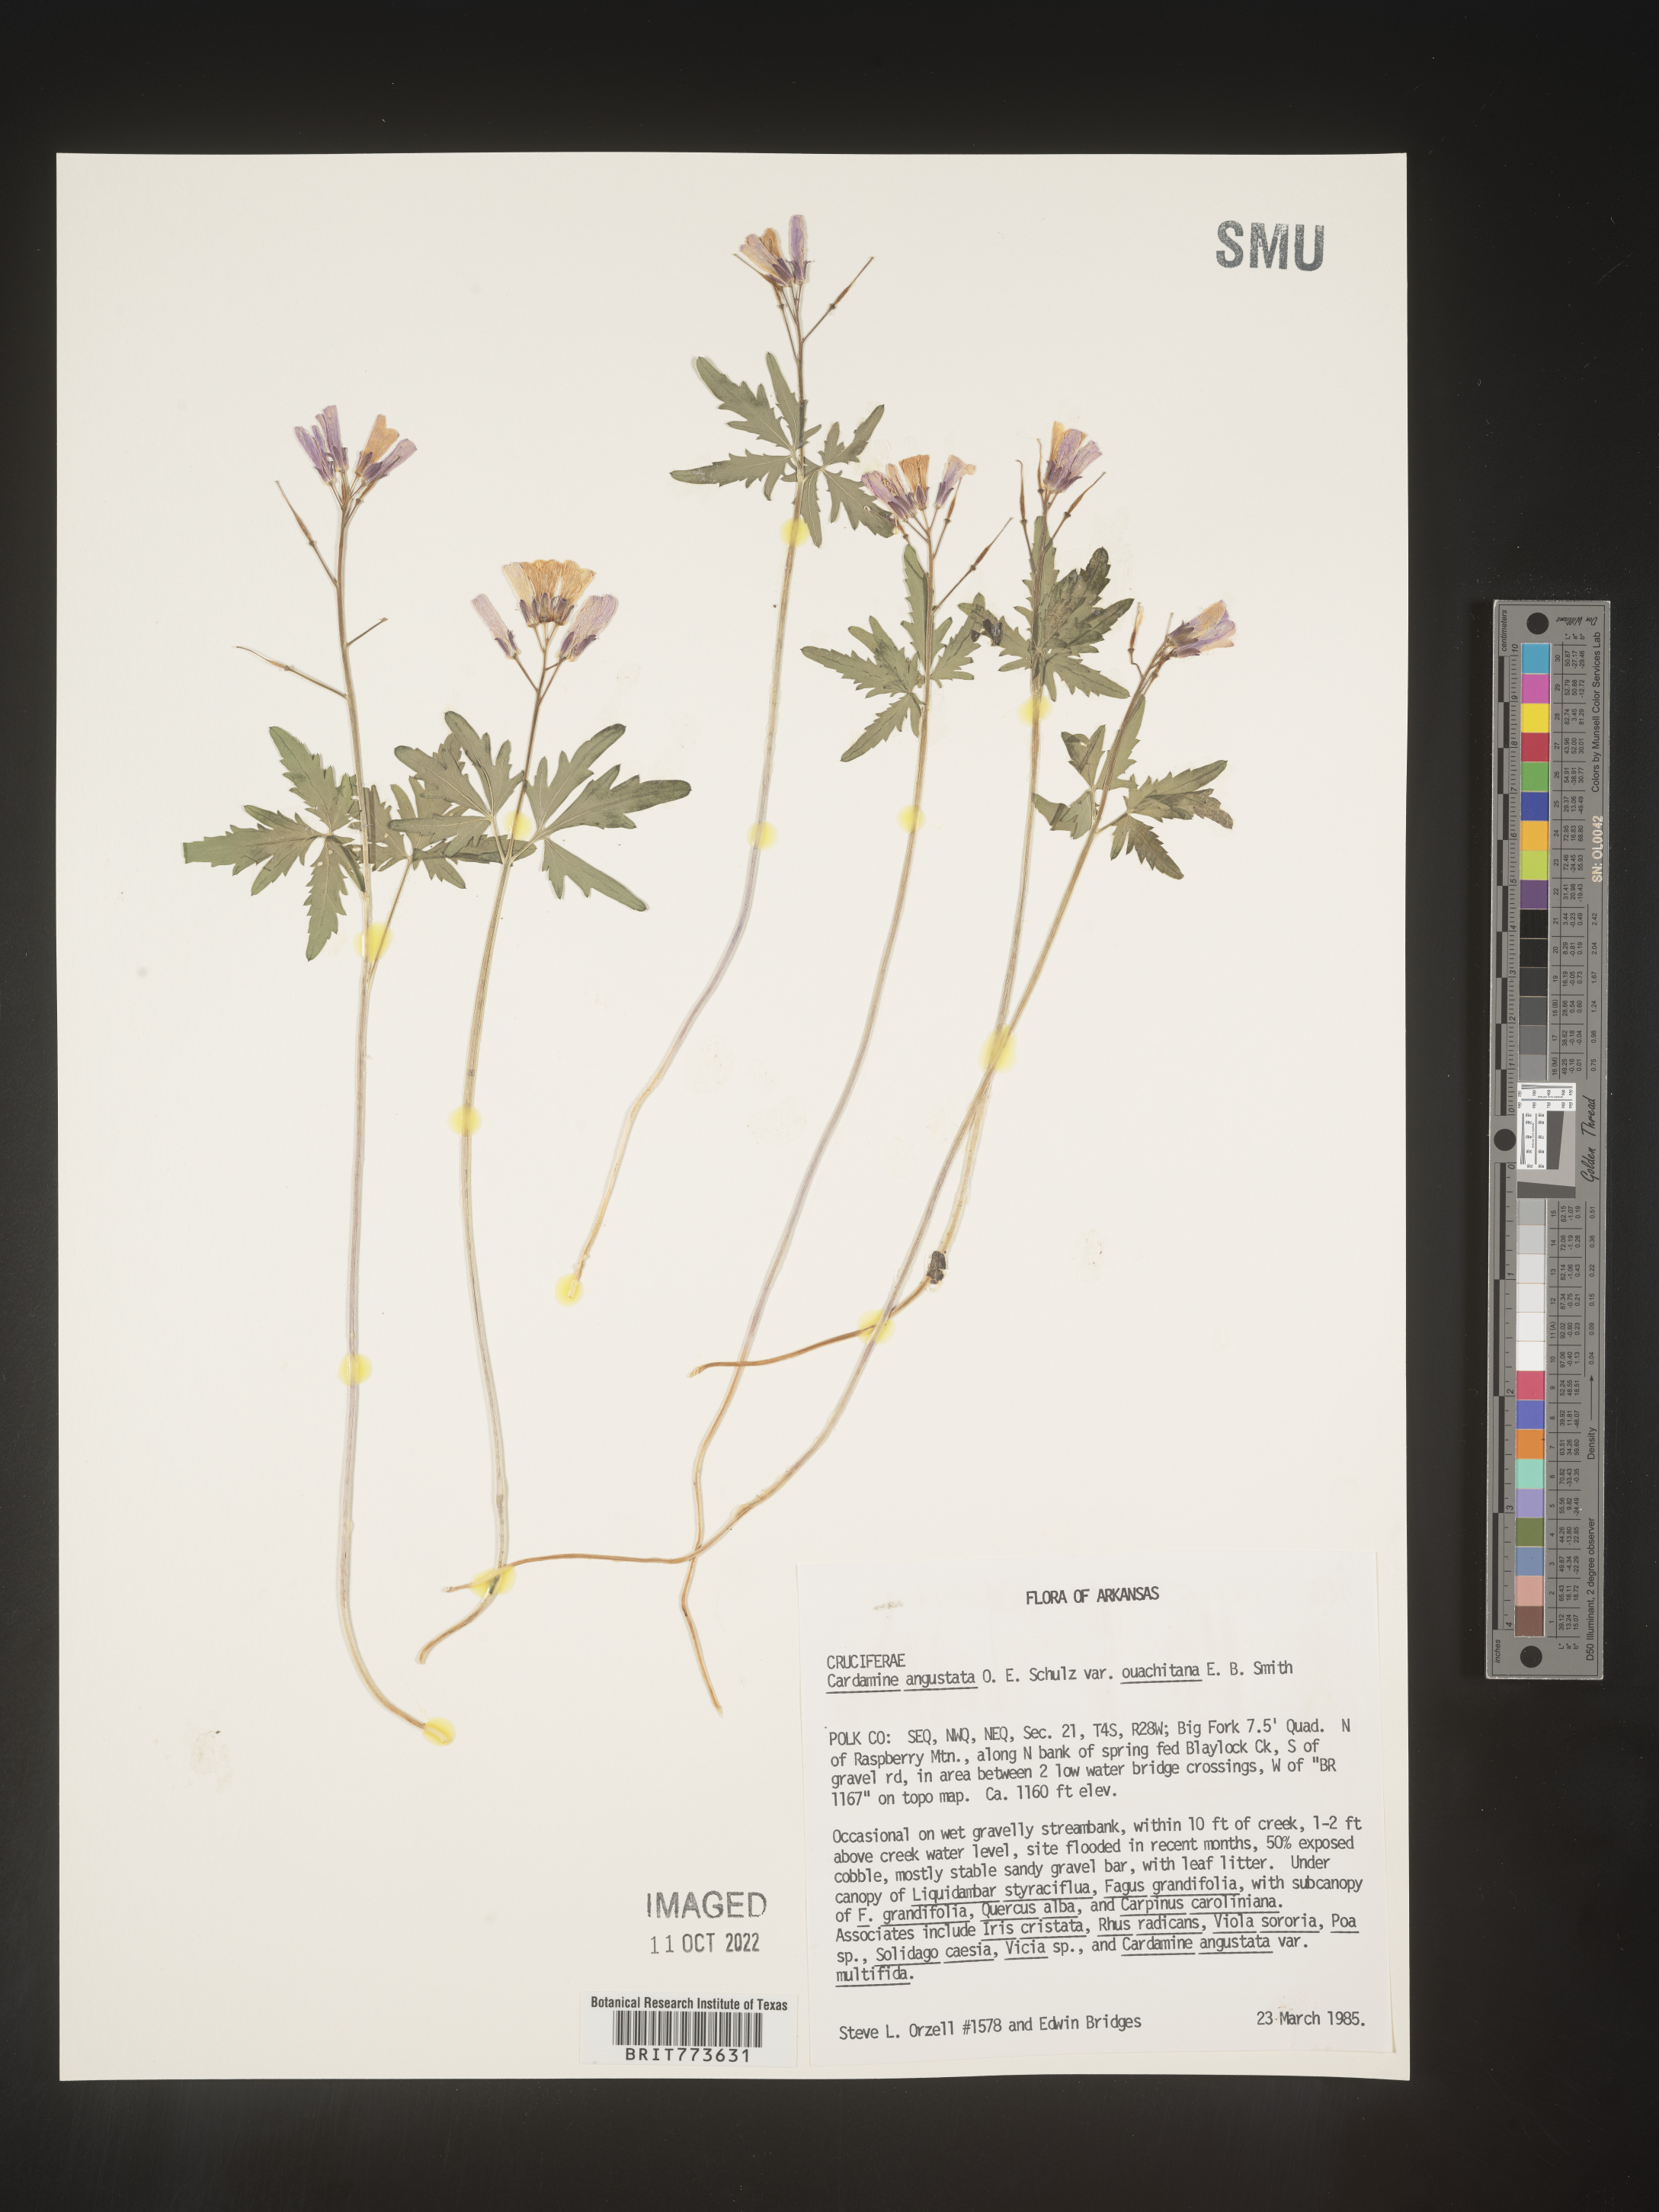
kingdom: Plantae
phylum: Tracheophyta
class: Magnoliopsida
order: Brassicales
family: Brassicaceae
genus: Cardamine
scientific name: Cardamine
